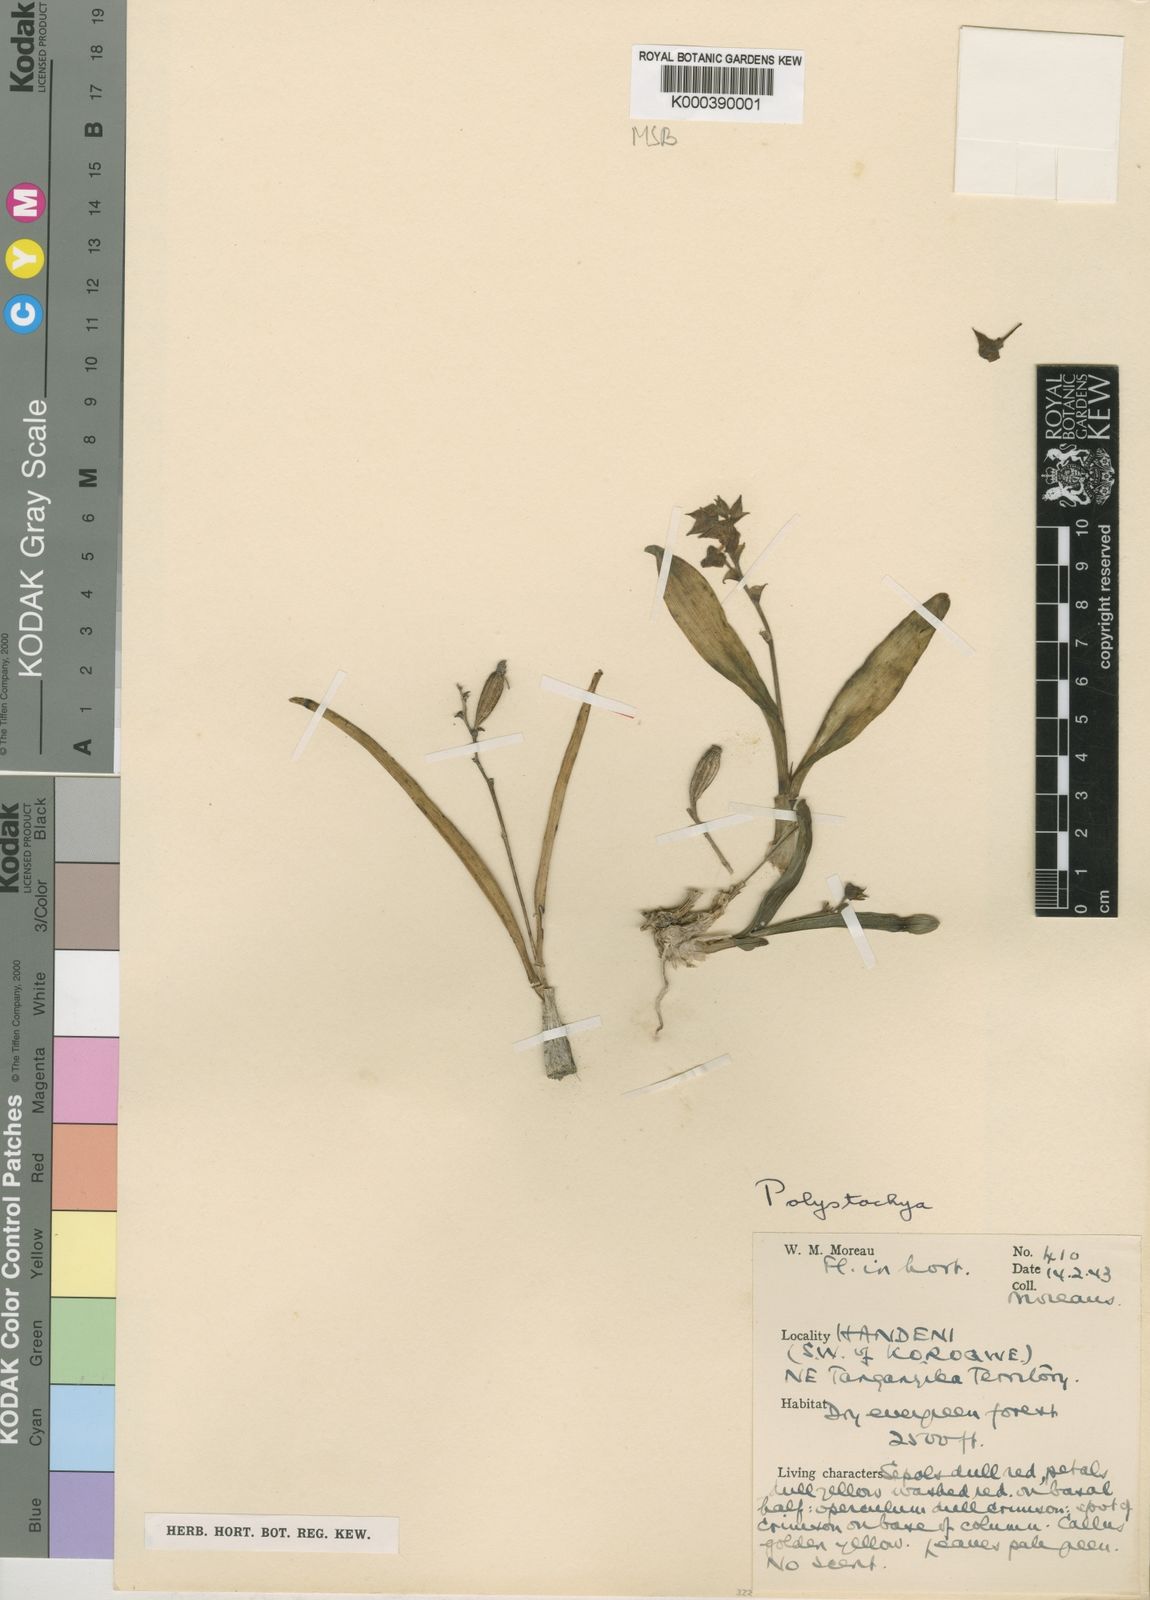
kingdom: Plantae
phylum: Tracheophyta
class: Liliopsida
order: Asparagales
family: Orchidaceae
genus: Polystachya
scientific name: Polystachya fischeri
